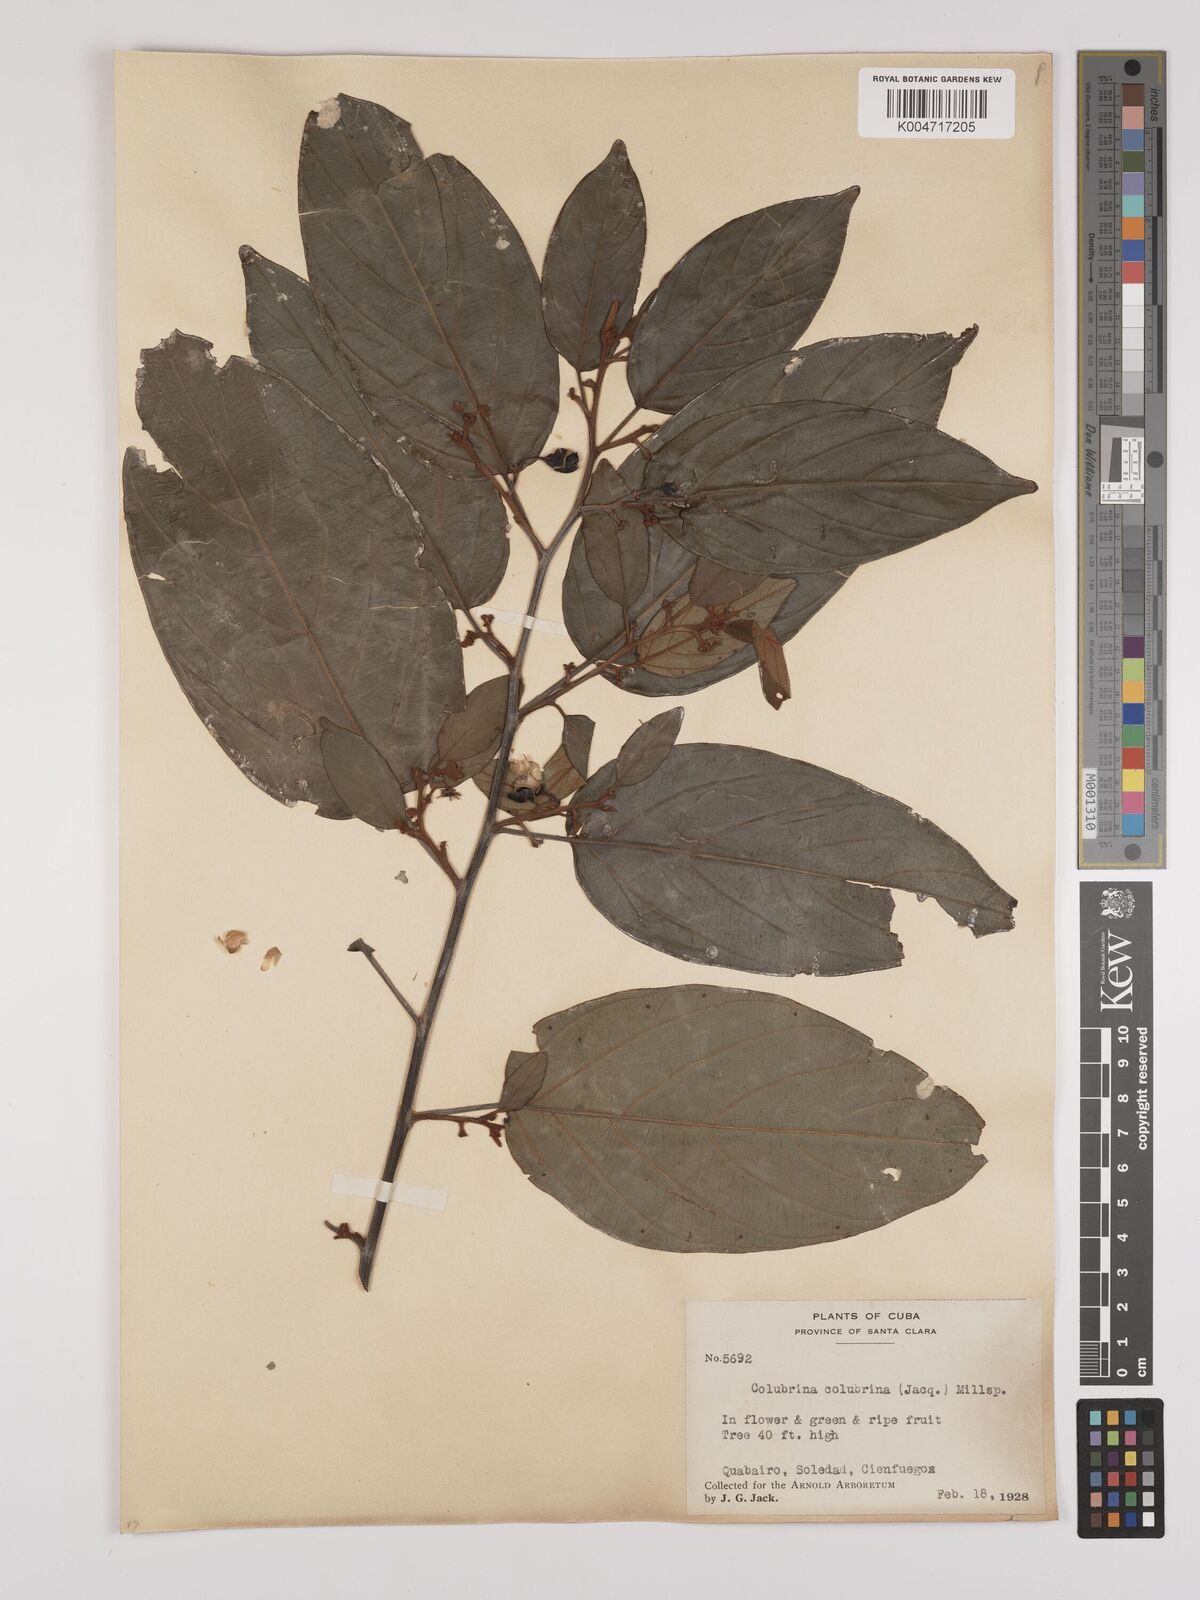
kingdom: Plantae
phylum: Tracheophyta
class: Magnoliopsida
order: Rosales
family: Rhamnaceae
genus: Colubrina
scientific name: Colubrina arborescens
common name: Wild coffee
